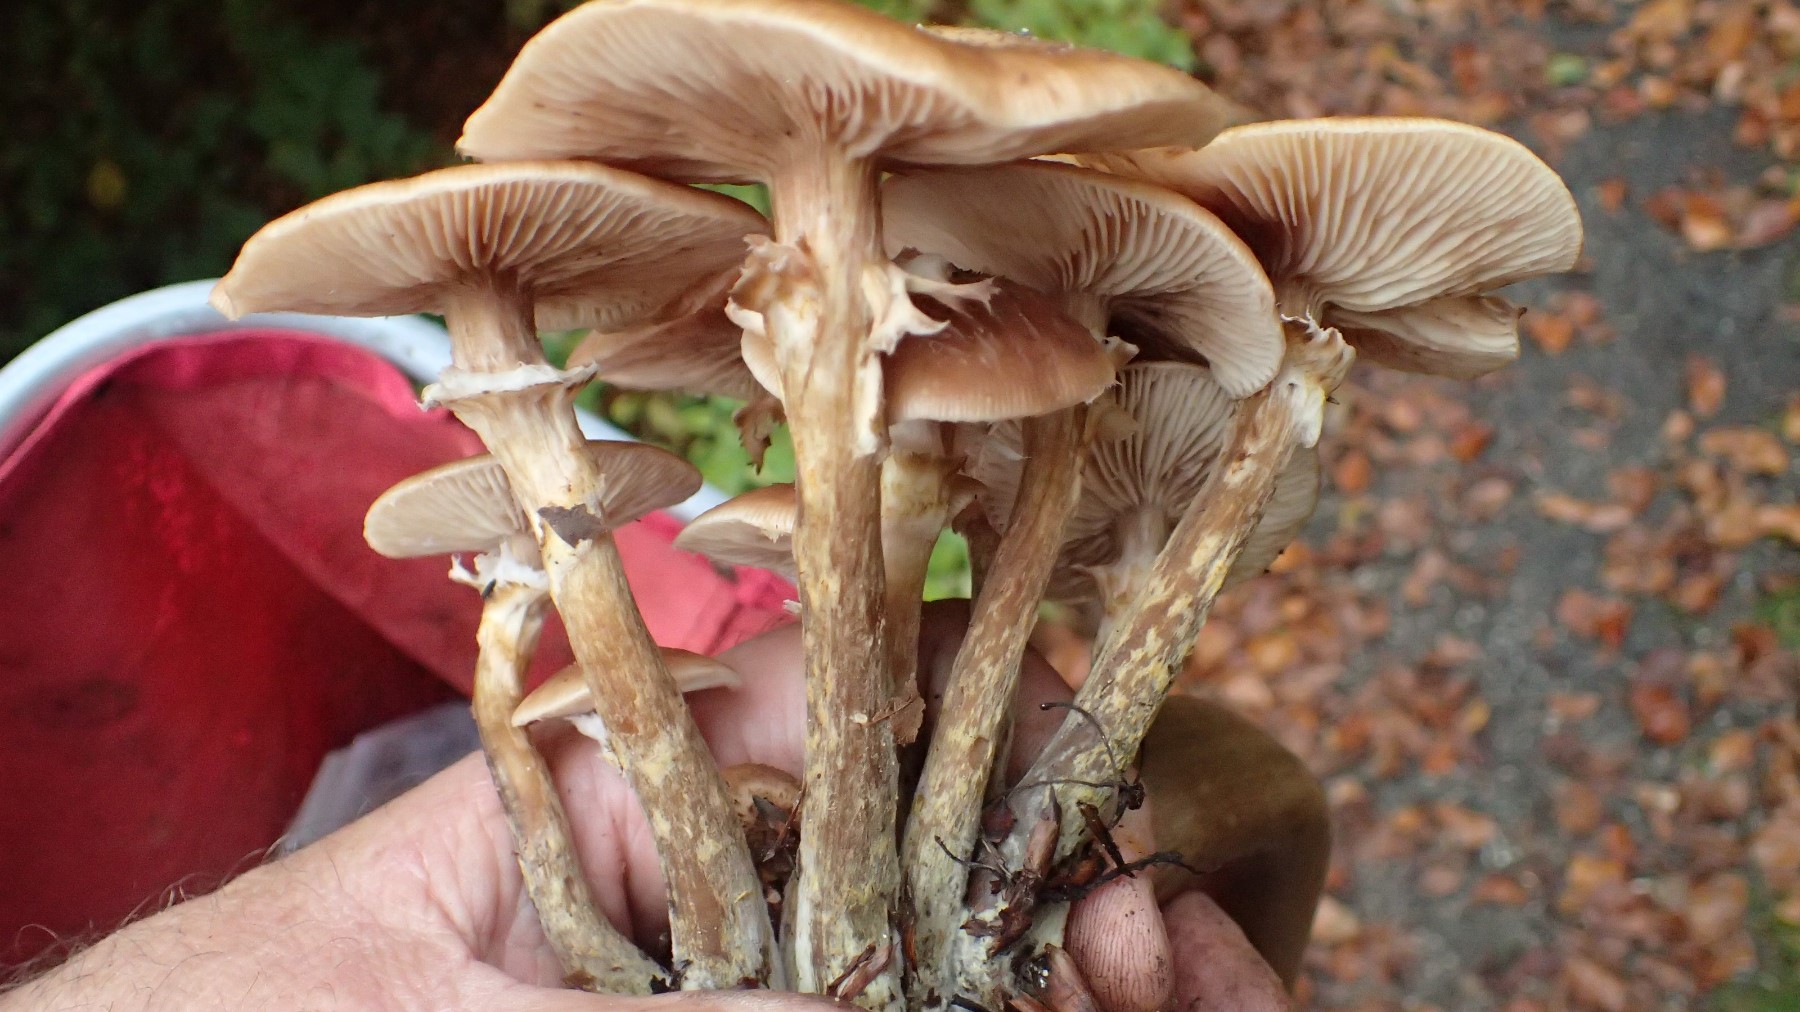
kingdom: Fungi
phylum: Basidiomycota
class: Agaricomycetes
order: Agaricales
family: Physalacriaceae
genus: Armillaria
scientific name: Armillaria
